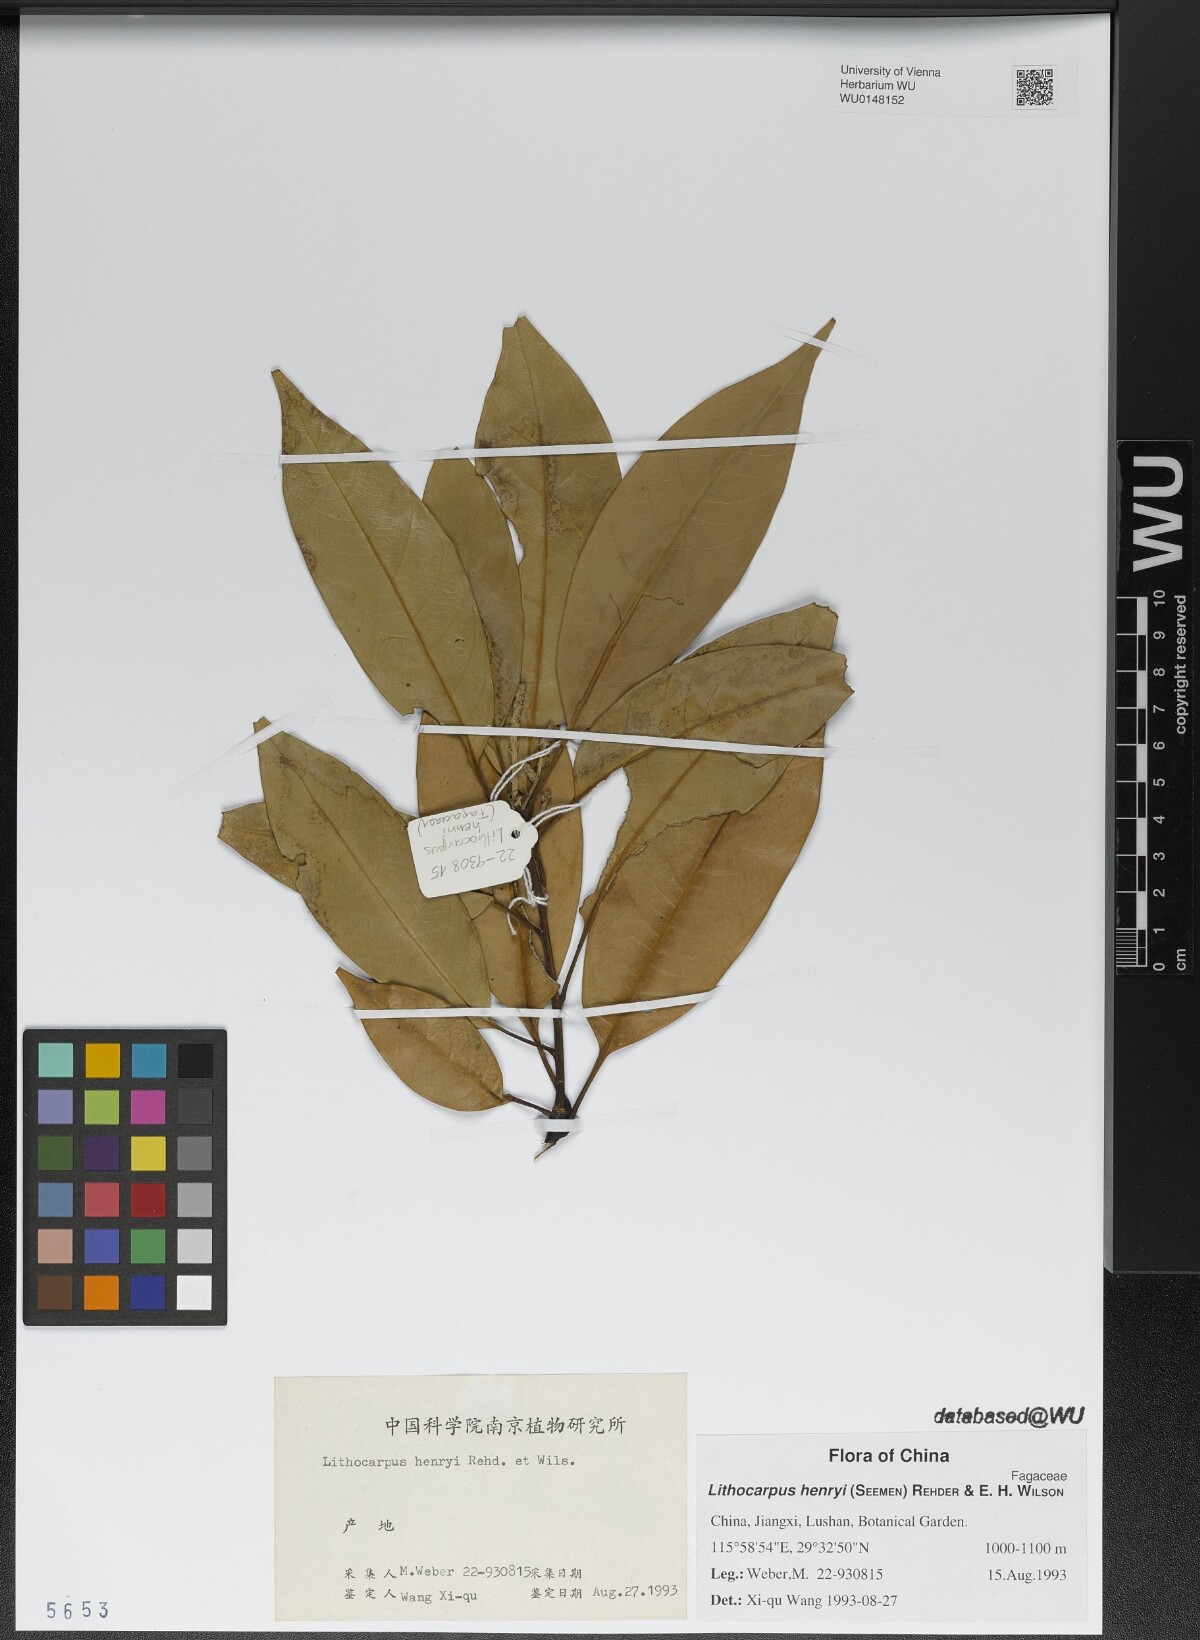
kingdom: Plantae
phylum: Tracheophyta
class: Magnoliopsida
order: Fagales
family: Fagaceae
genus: Lithocarpus
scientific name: Lithocarpus henryi
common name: Henry tanbark oak
